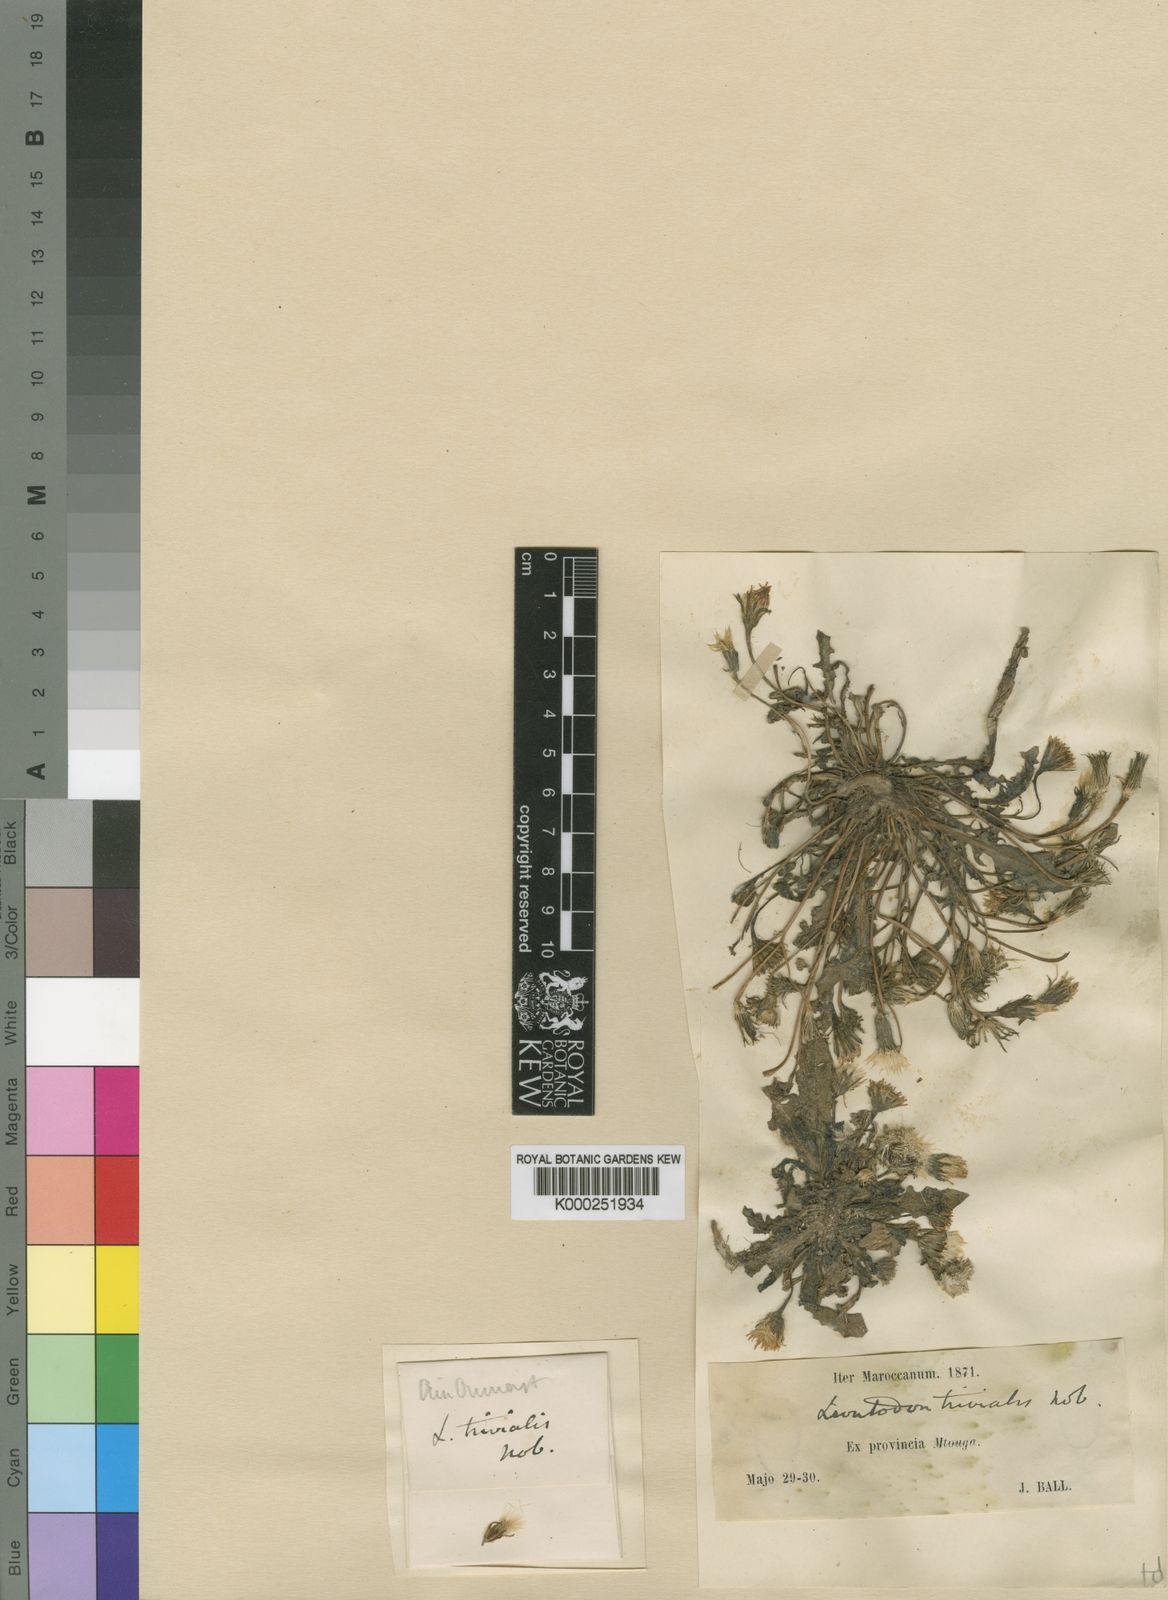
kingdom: Plantae
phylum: Tracheophyta
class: Magnoliopsida
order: Asterales
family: Asteraceae
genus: Leontodon
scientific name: Leontodon
